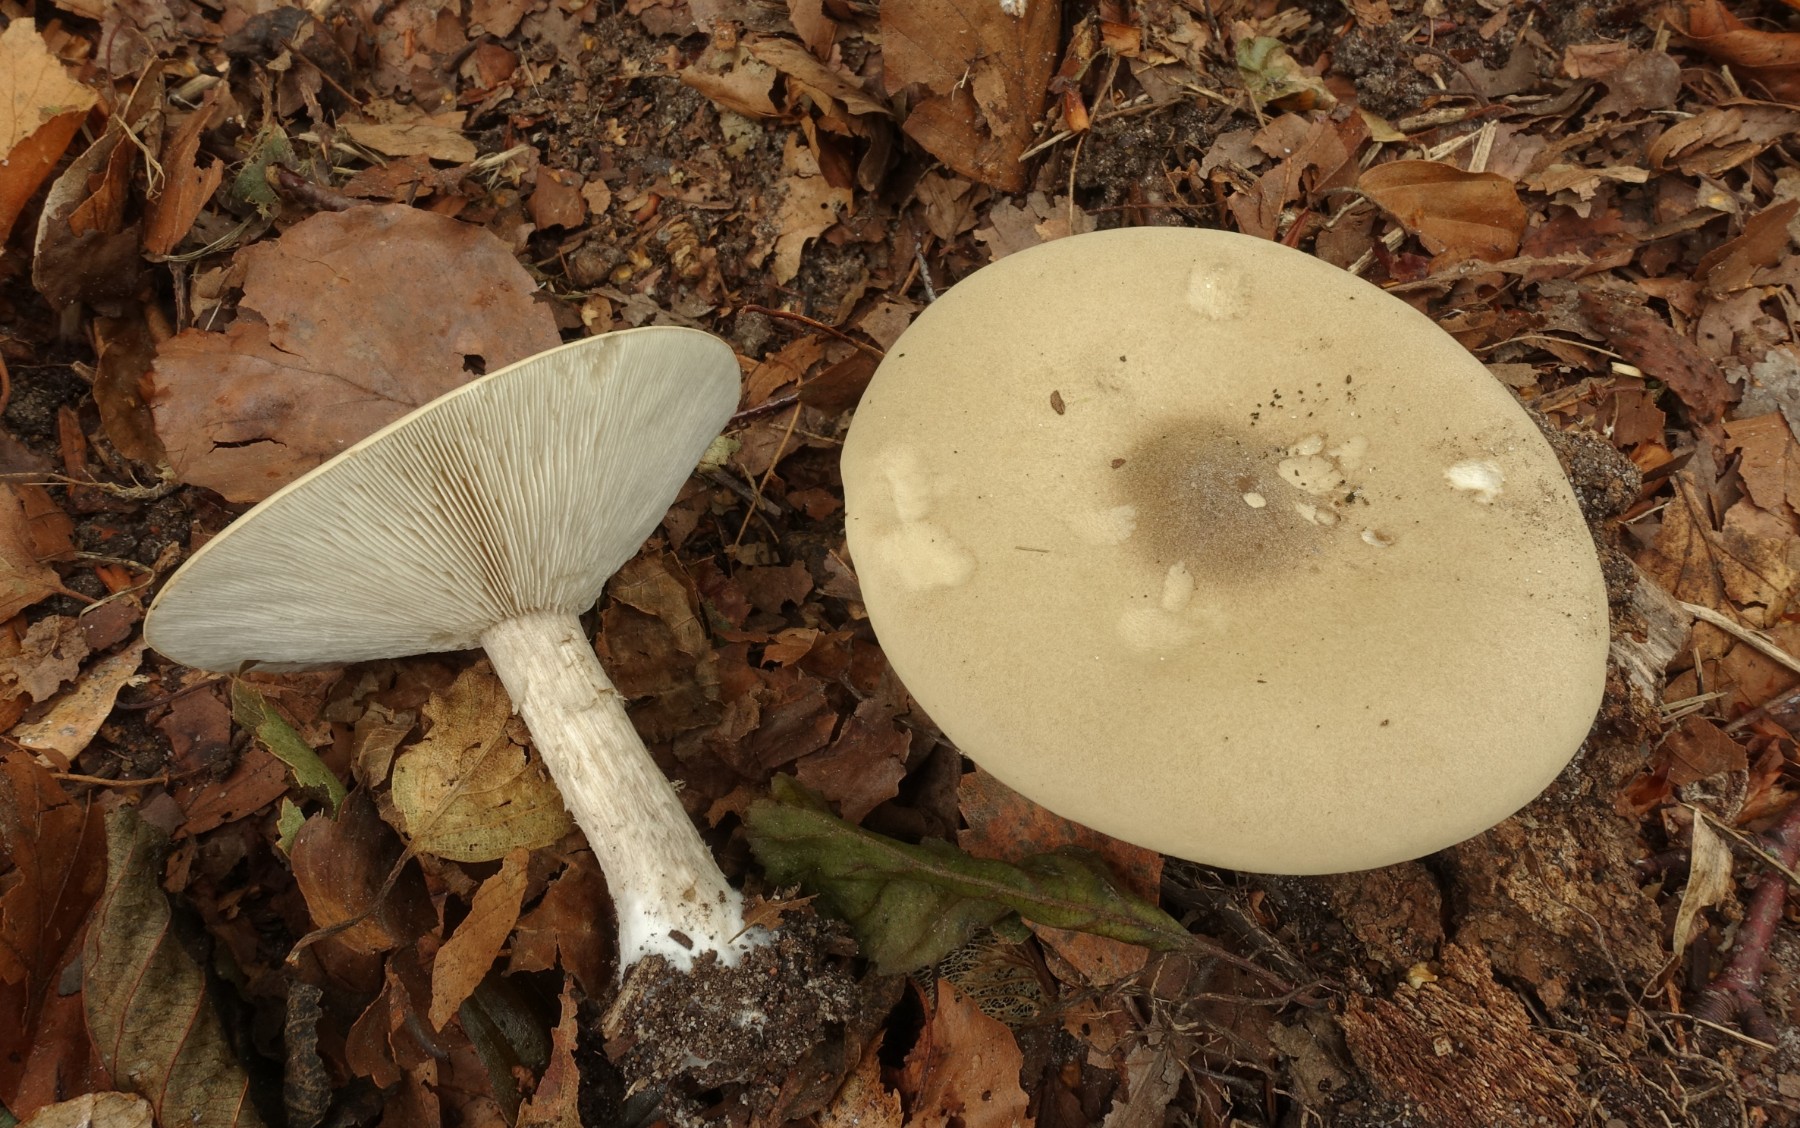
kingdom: Fungi
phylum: Basidiomycota
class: Agaricomycetes
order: Agaricales
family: Tricholomataceae
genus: Melanoleuca
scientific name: Melanoleuca grammopodia
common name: stribestokket munkehat
